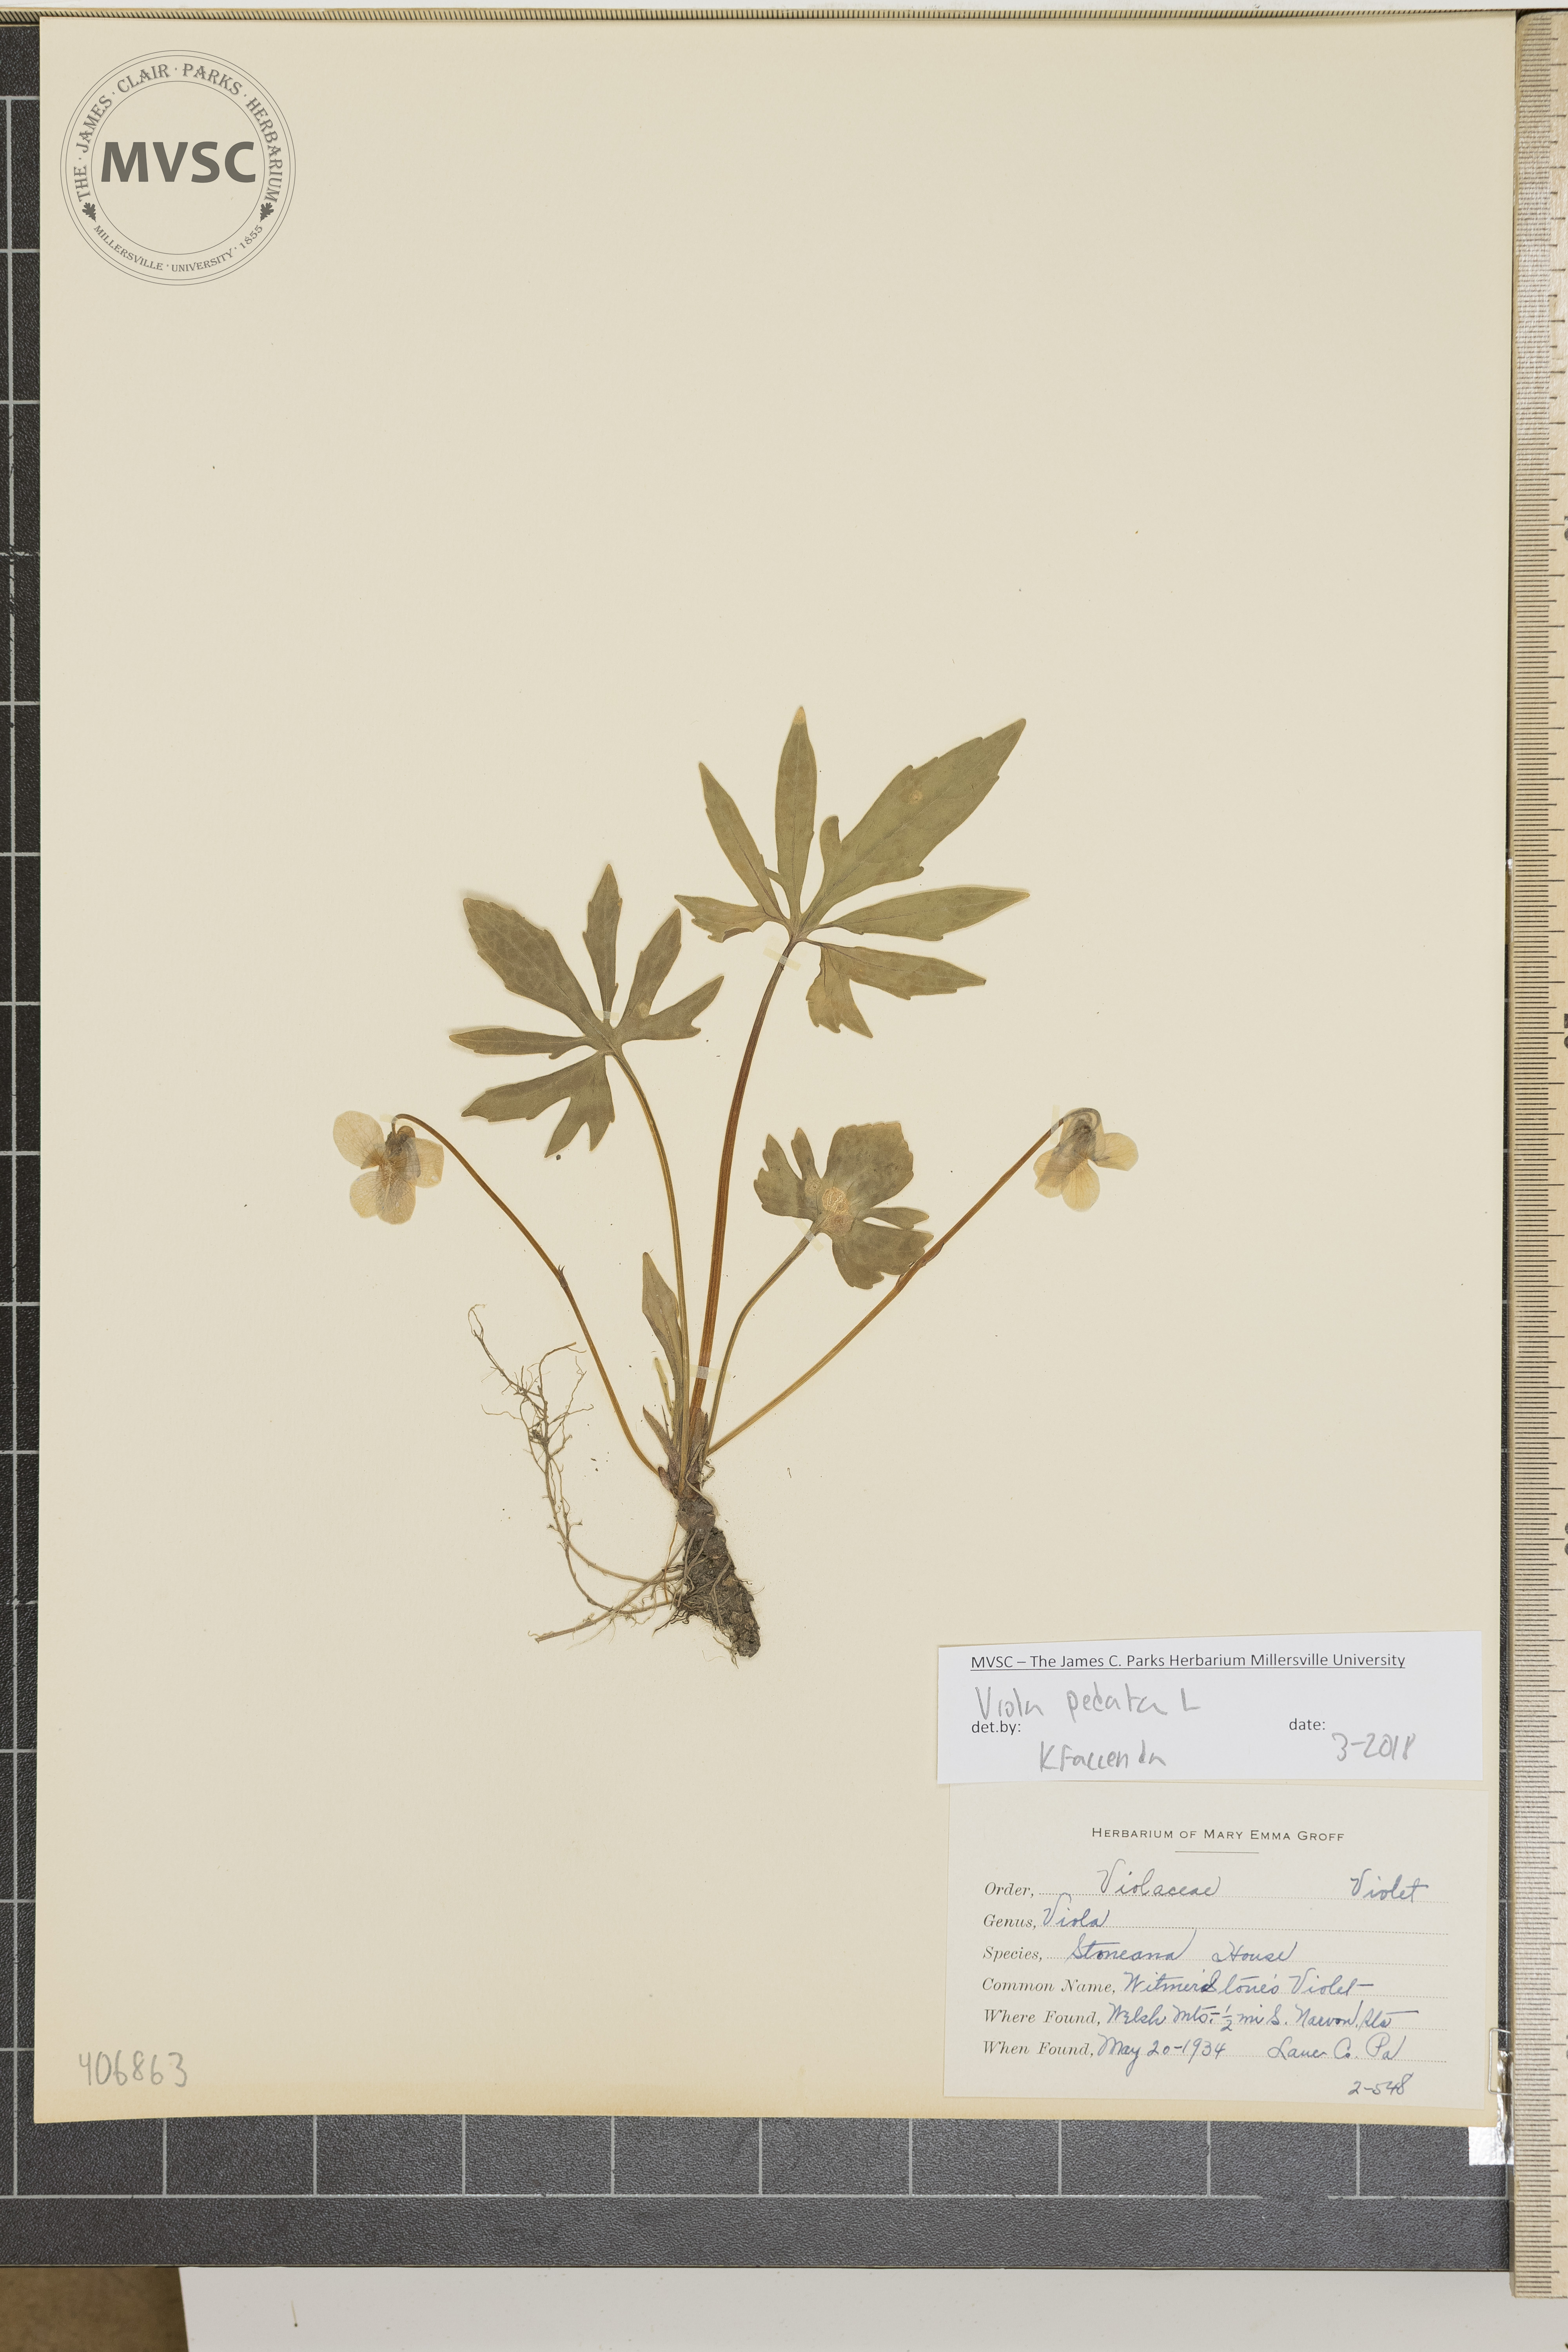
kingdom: Plantae
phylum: Tracheophyta
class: Magnoliopsida
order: Malpighiales
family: Violaceae
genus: Viola
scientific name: Viola pedata
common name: Pansy violet
